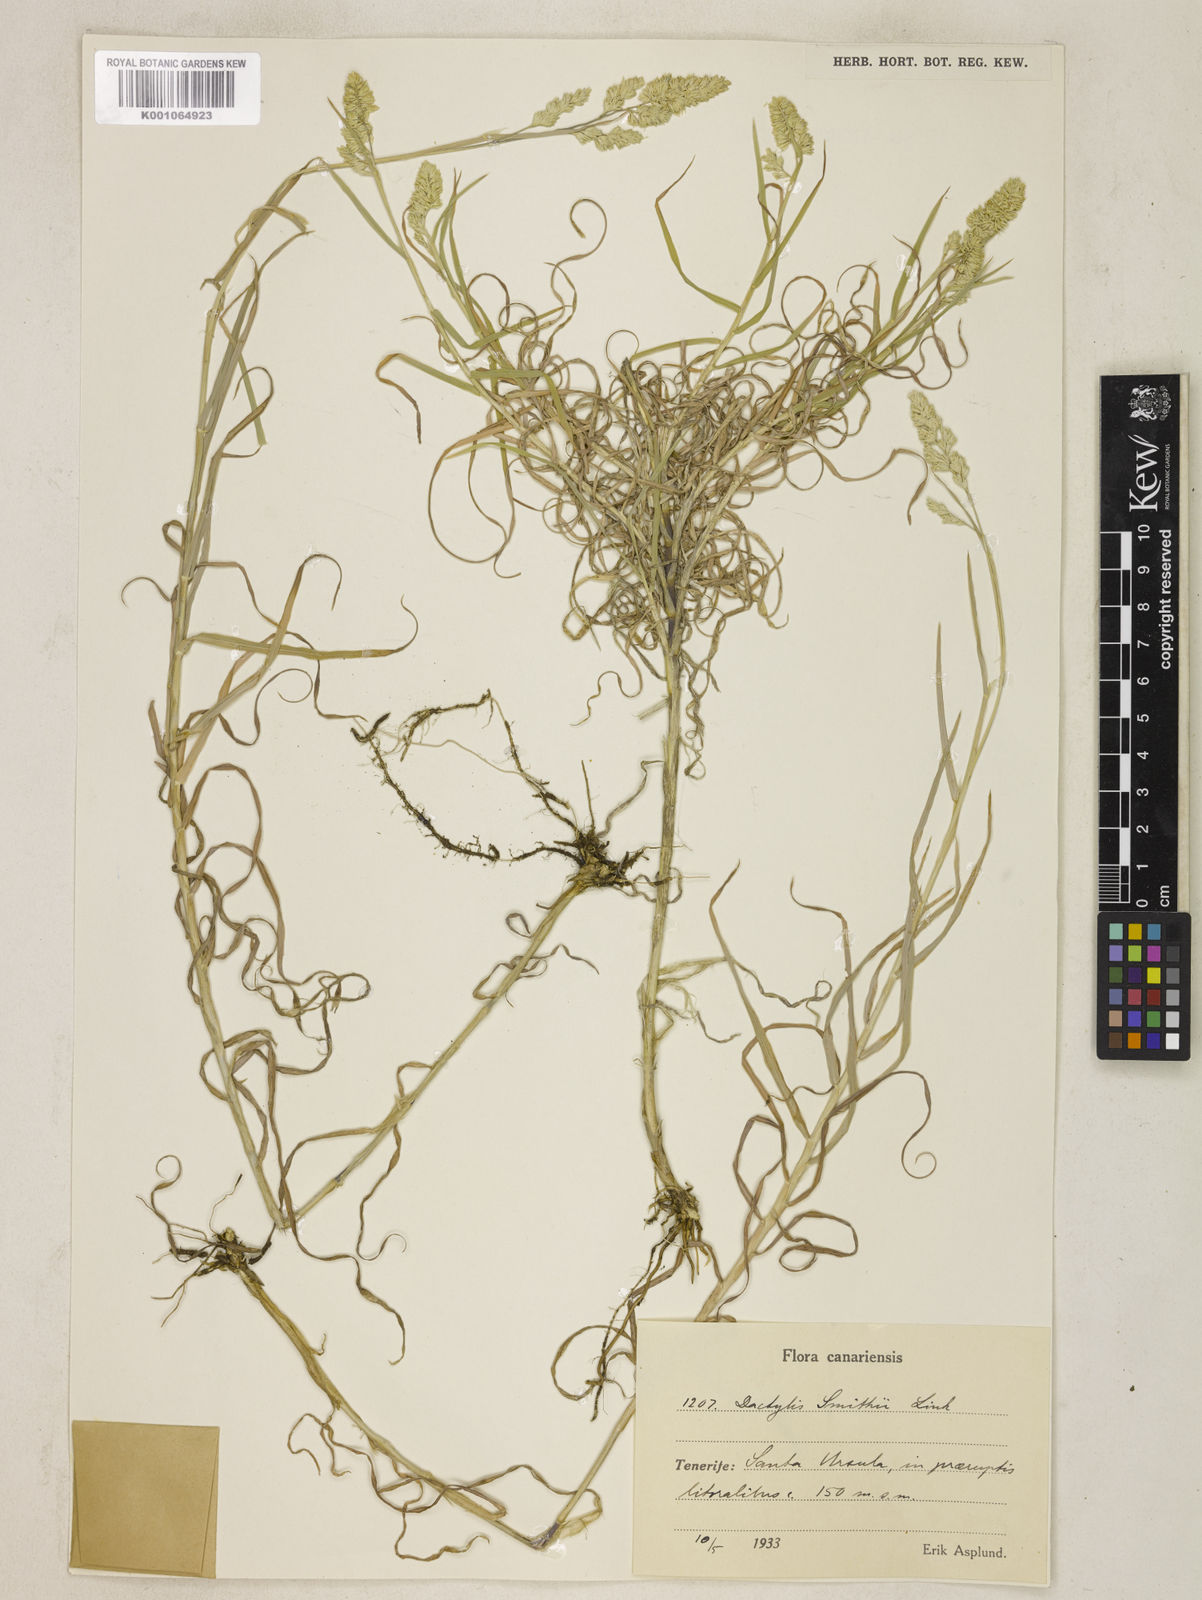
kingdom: Plantae
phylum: Tracheophyta
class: Liliopsida
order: Poales
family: Poaceae
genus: Dactylis
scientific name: Dactylis glomerata
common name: Orchardgrass
